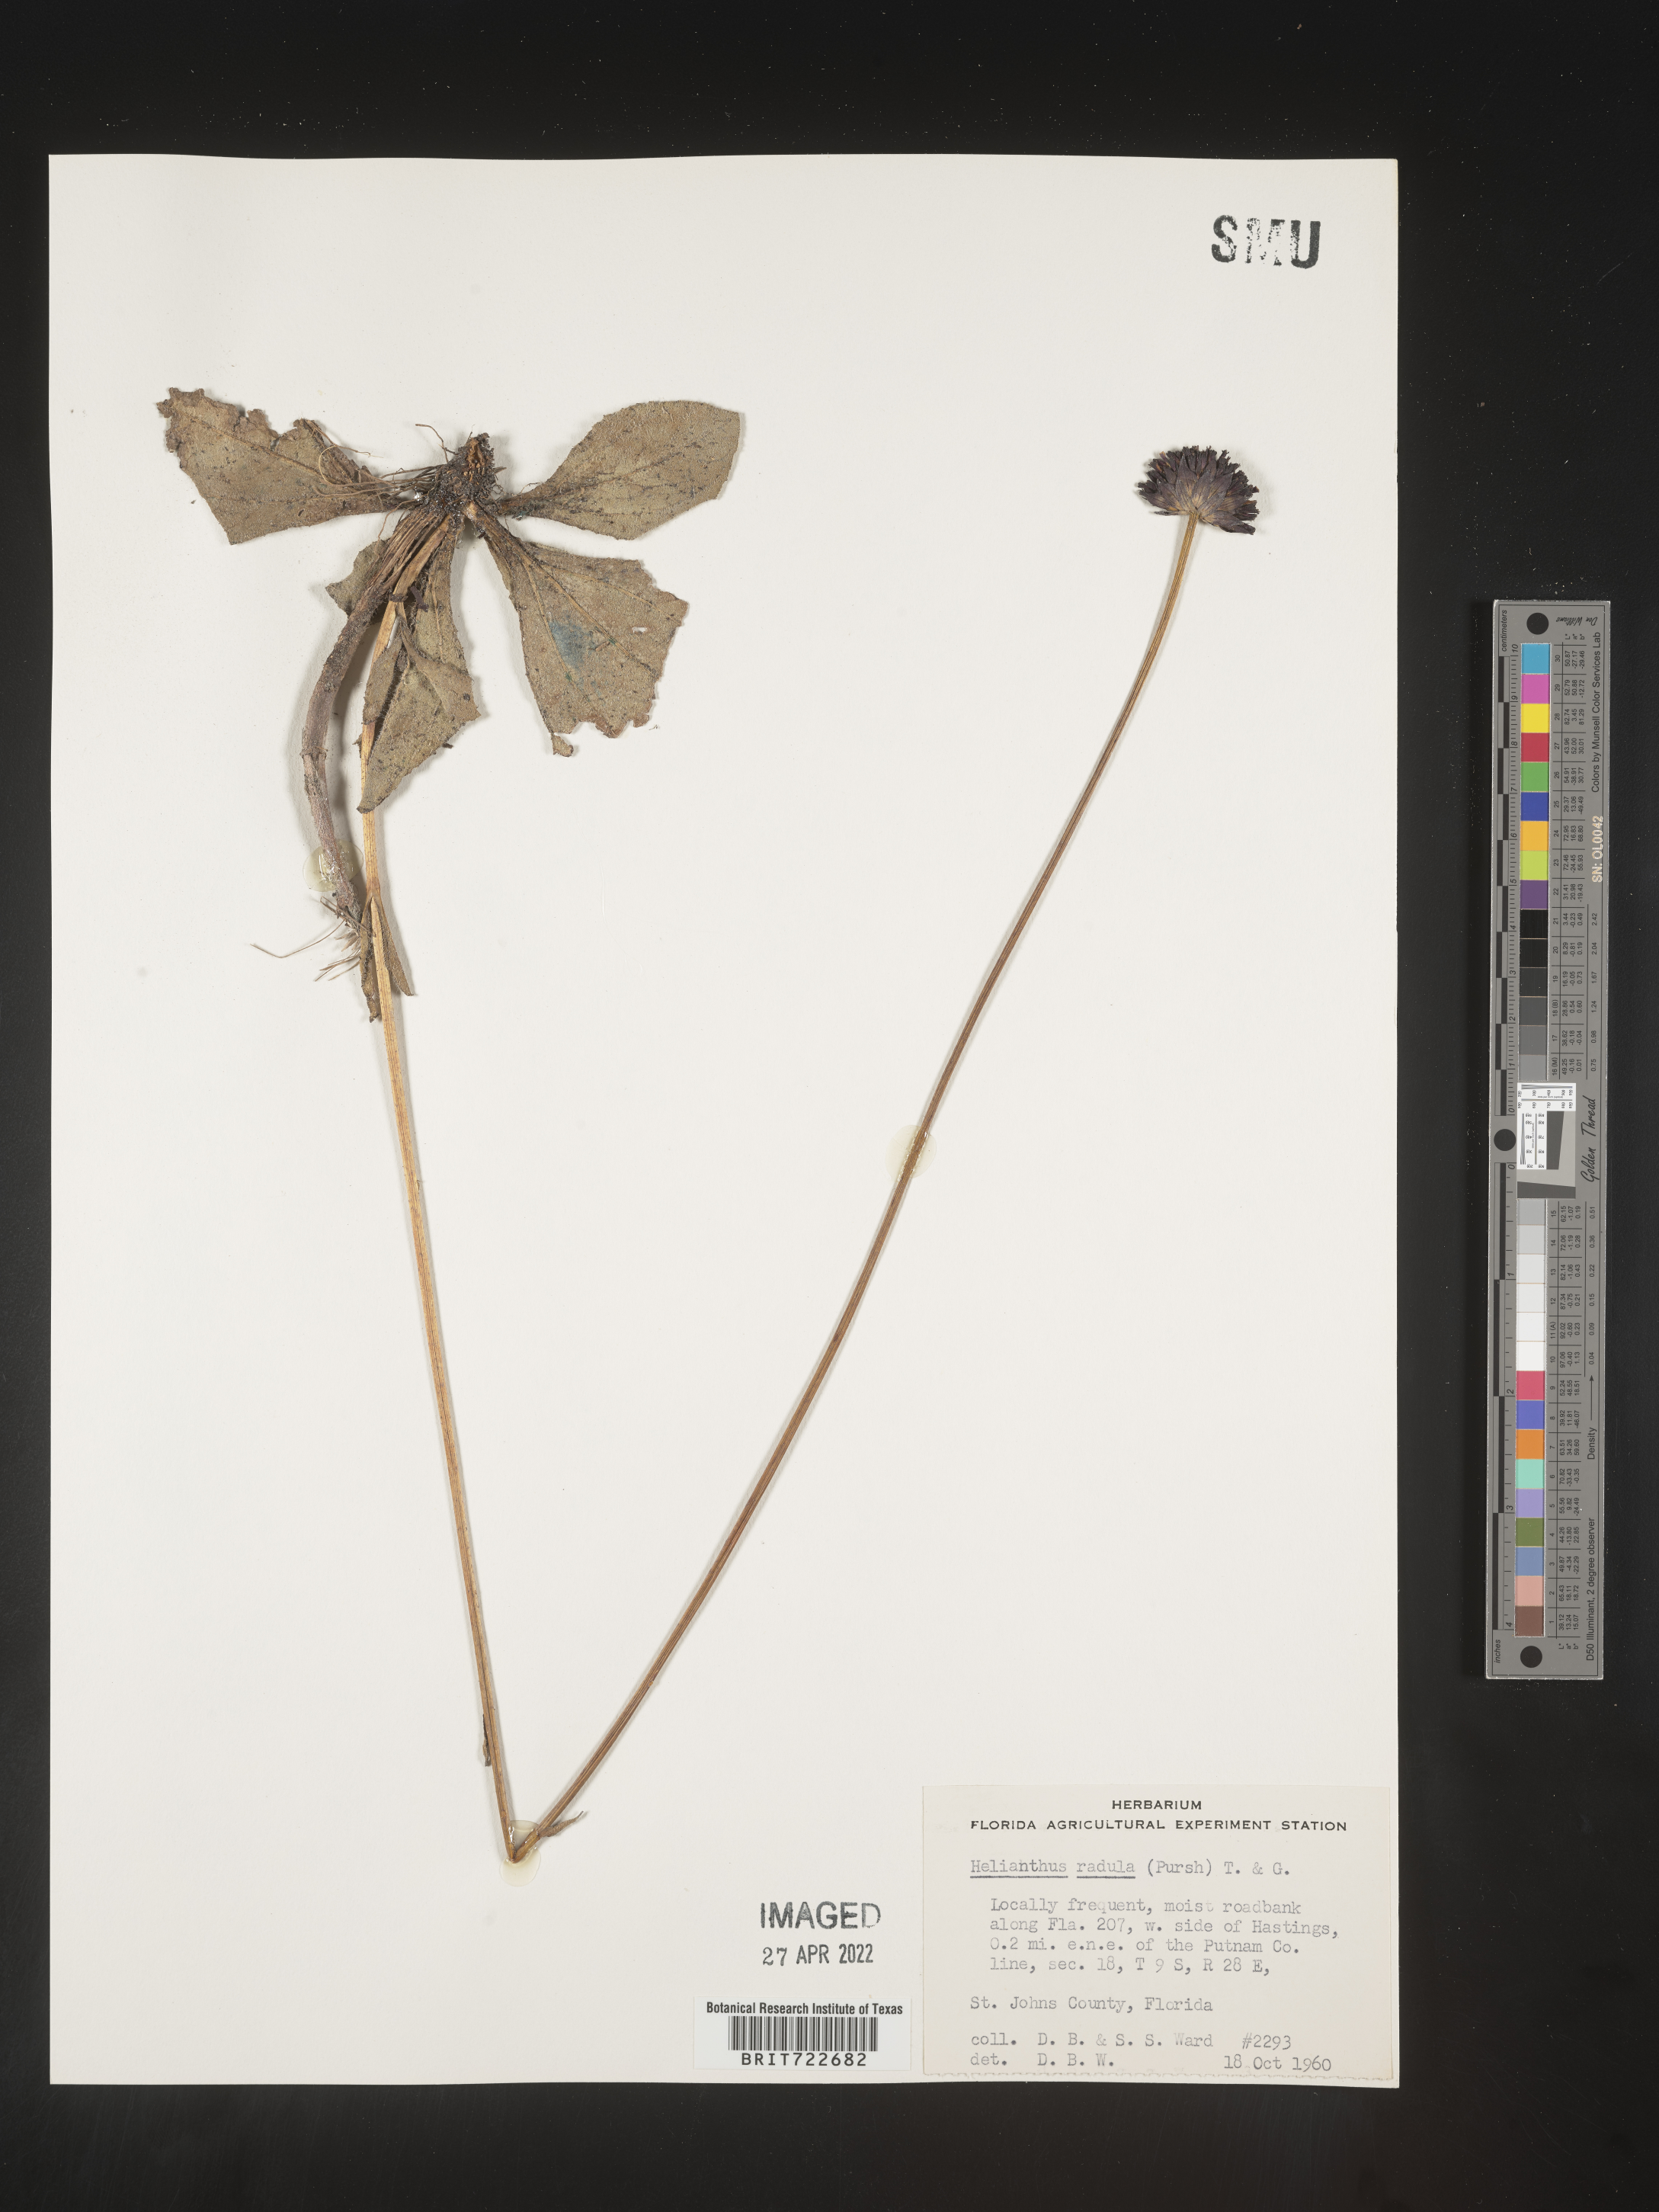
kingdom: Plantae
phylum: Tracheophyta
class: Magnoliopsida
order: Asterales
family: Asteraceae
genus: Helianthus
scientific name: Helianthus radula
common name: Pineland sunflower
